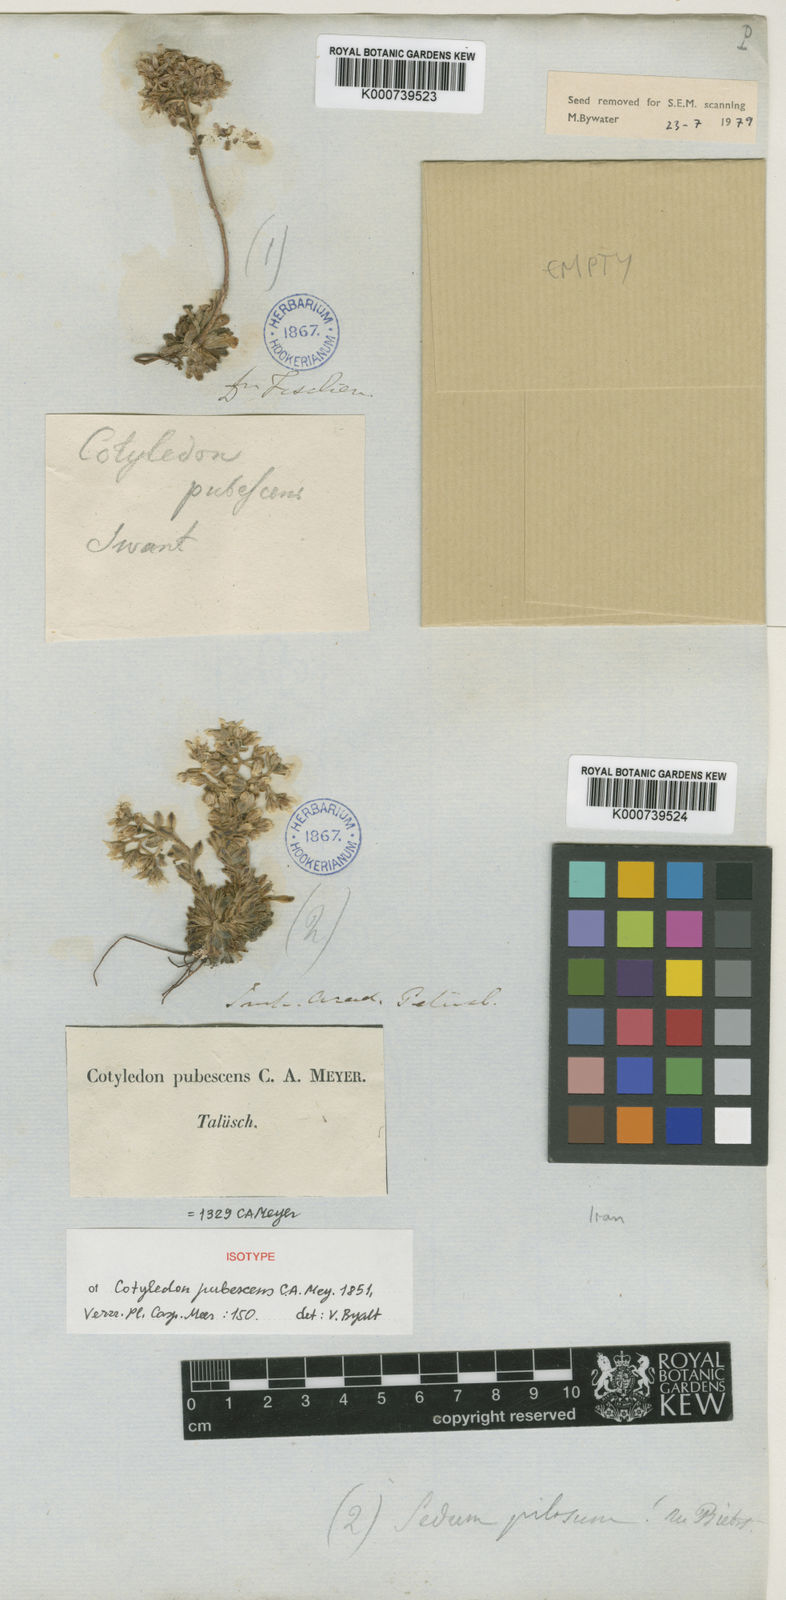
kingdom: Plantae
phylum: Tracheophyta
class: Magnoliopsida
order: Saxifragales
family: Crassulaceae
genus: Prometheum
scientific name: Prometheum pilosum
